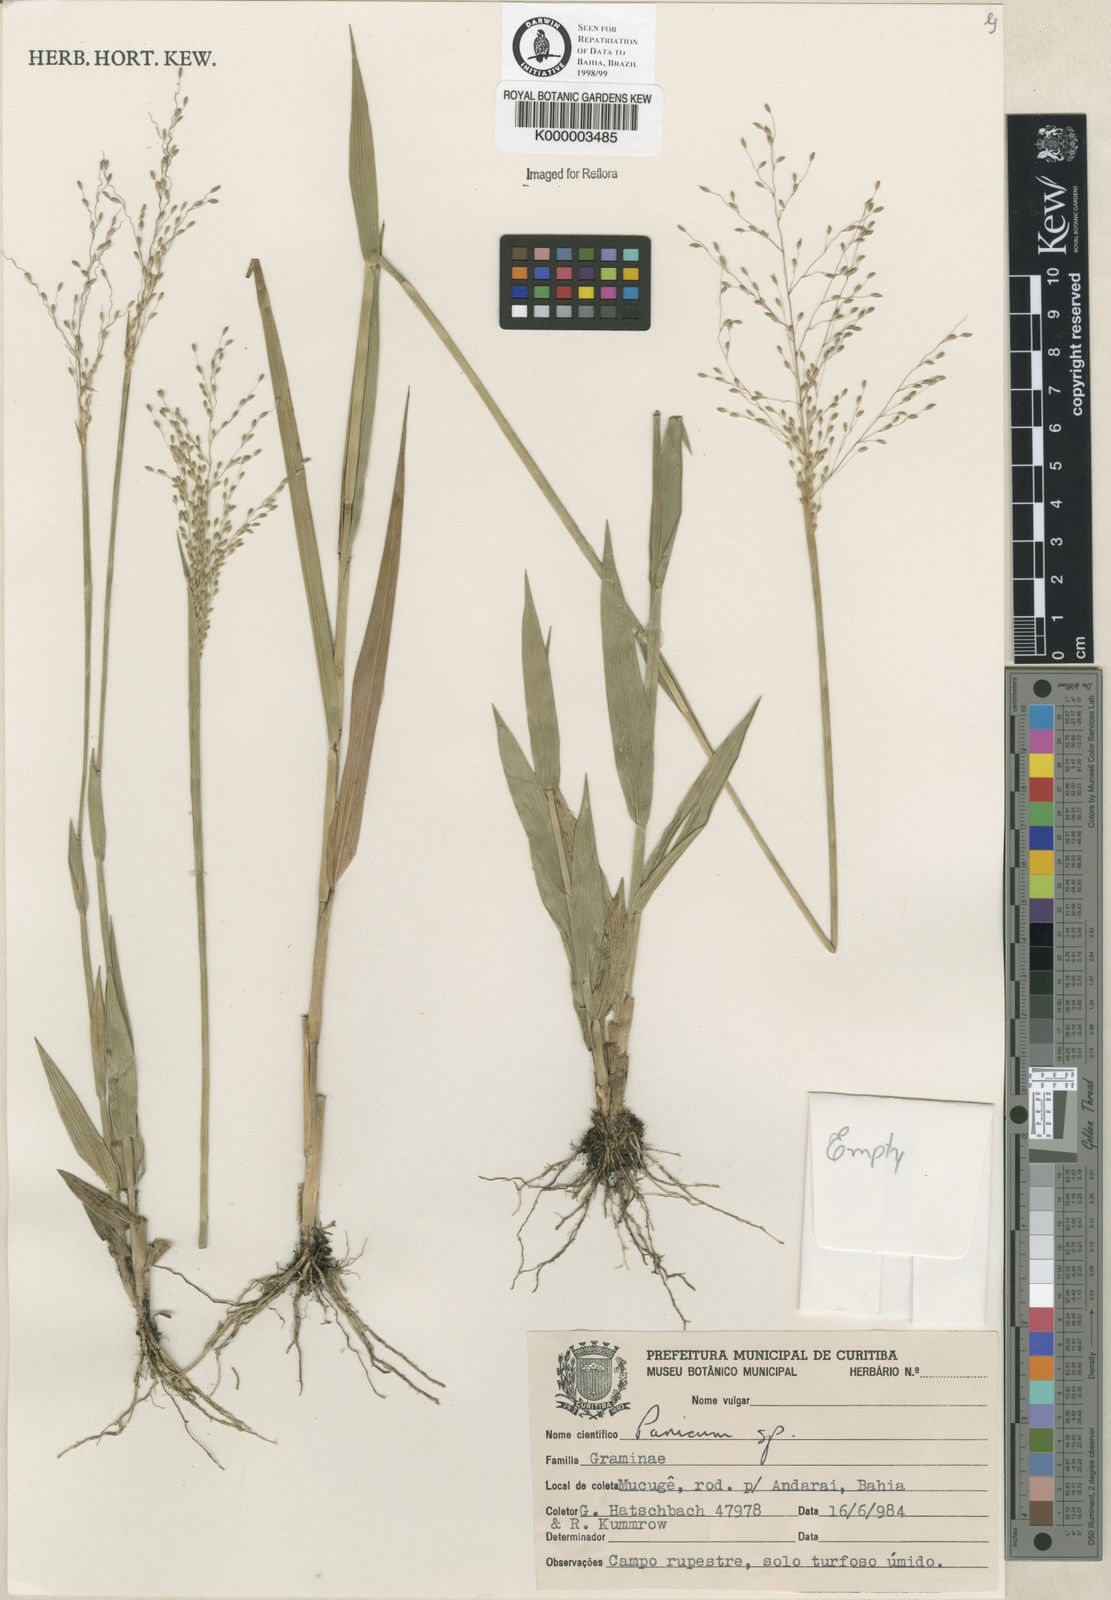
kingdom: Plantae
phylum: Tracheophyta
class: Liliopsida
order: Poales
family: Poaceae
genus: Panicum
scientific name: Panicum
